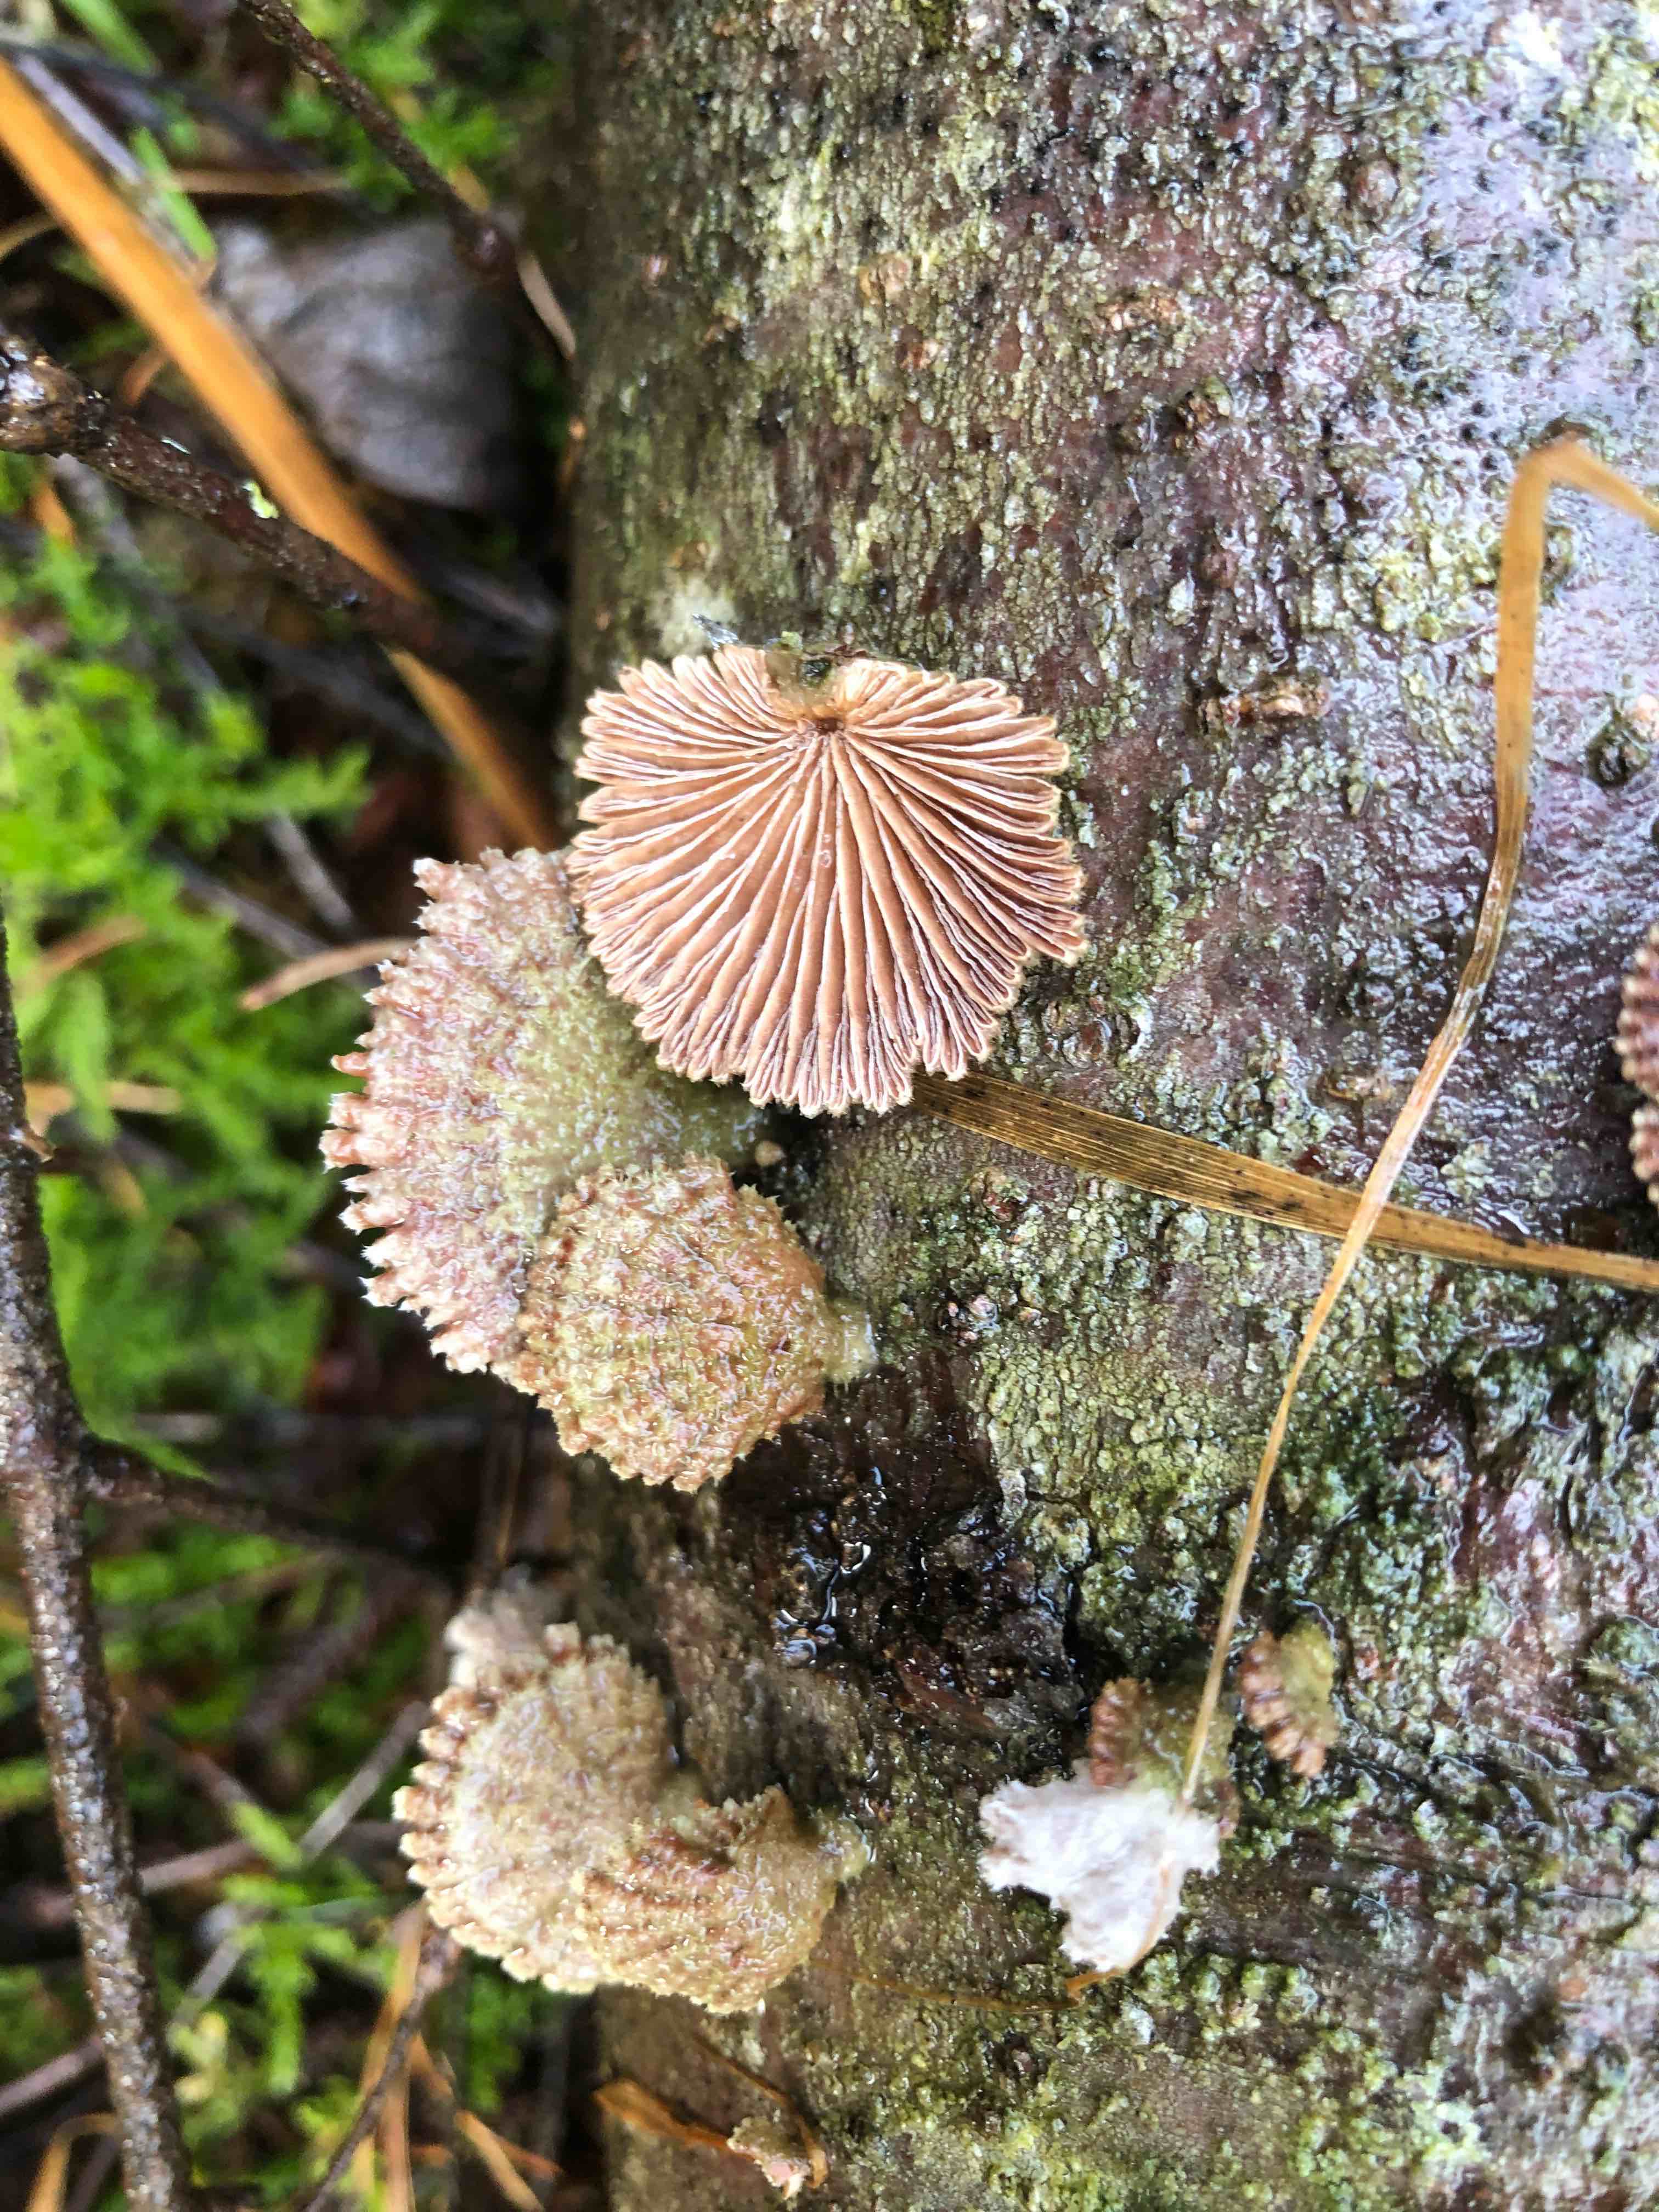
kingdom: Fungi
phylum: Basidiomycota
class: Agaricomycetes
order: Agaricales
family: Schizophyllaceae
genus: Schizophyllum
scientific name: Schizophyllum commune
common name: kløvblad
